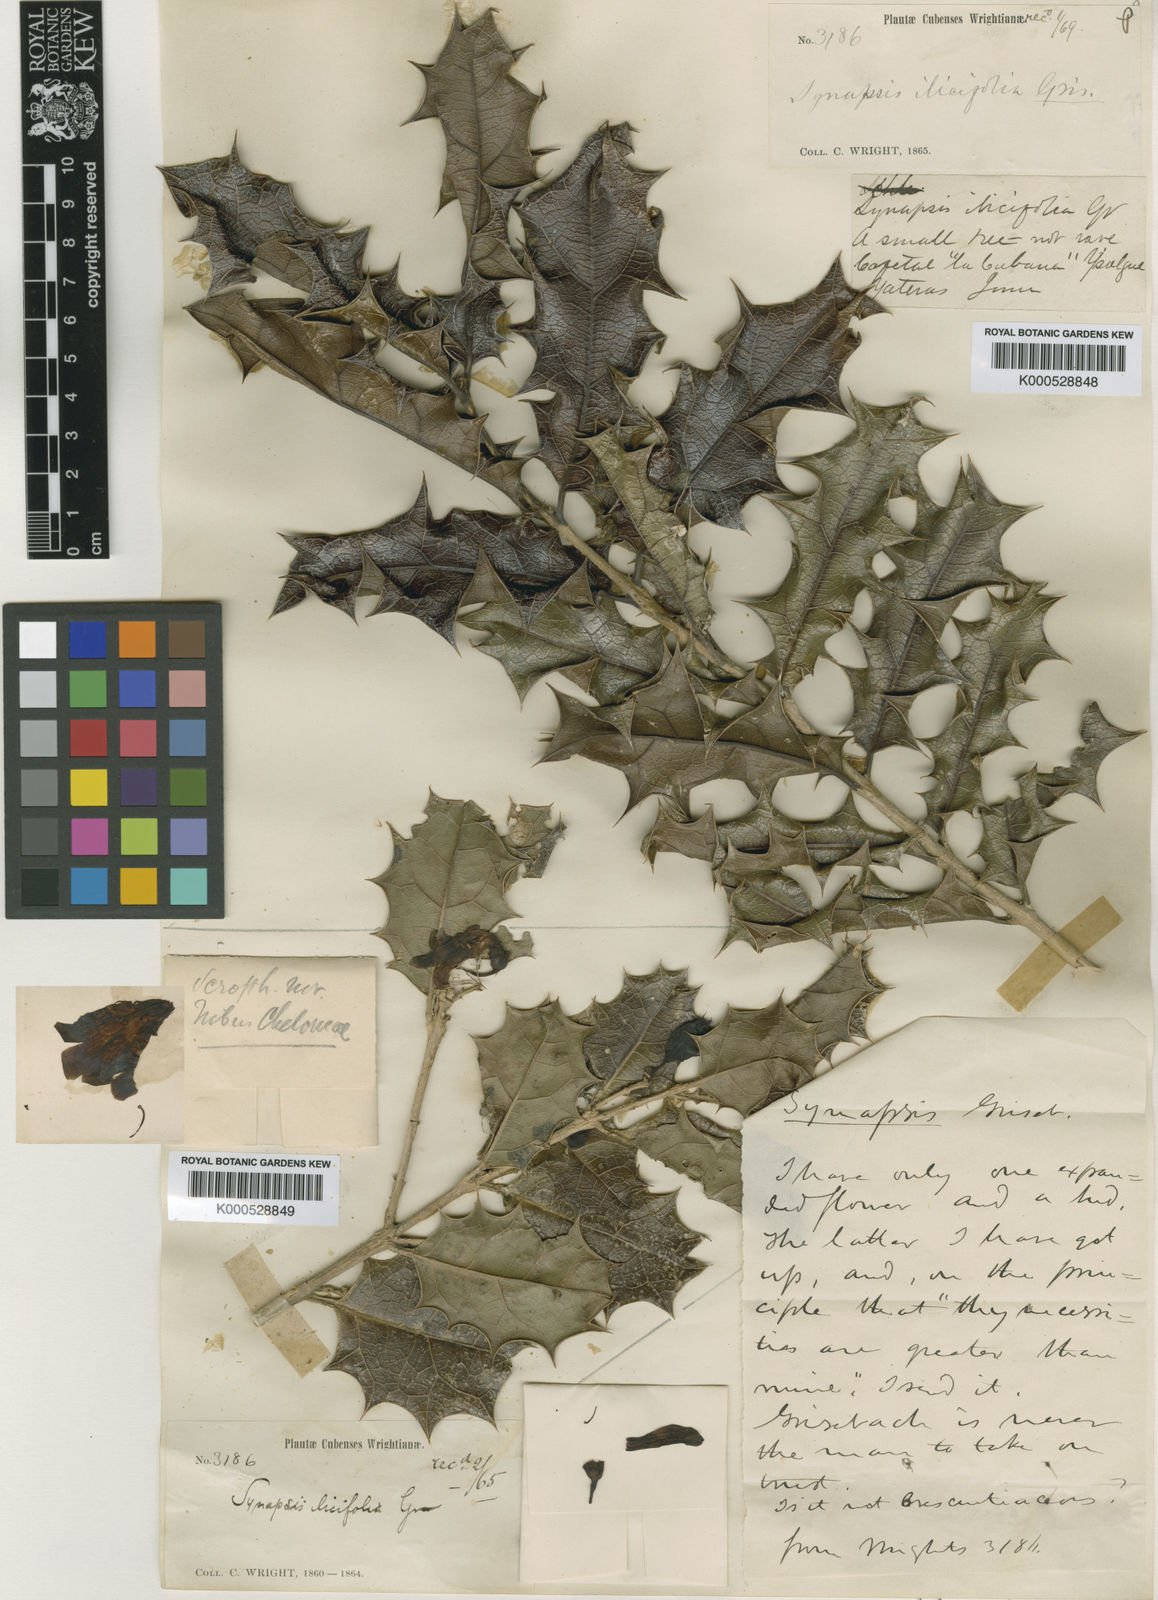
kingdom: Plantae
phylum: Tracheophyta
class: Magnoliopsida
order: Lamiales
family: Schlegeliaceae
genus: Synapsis
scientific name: Synapsis ilicifolia
